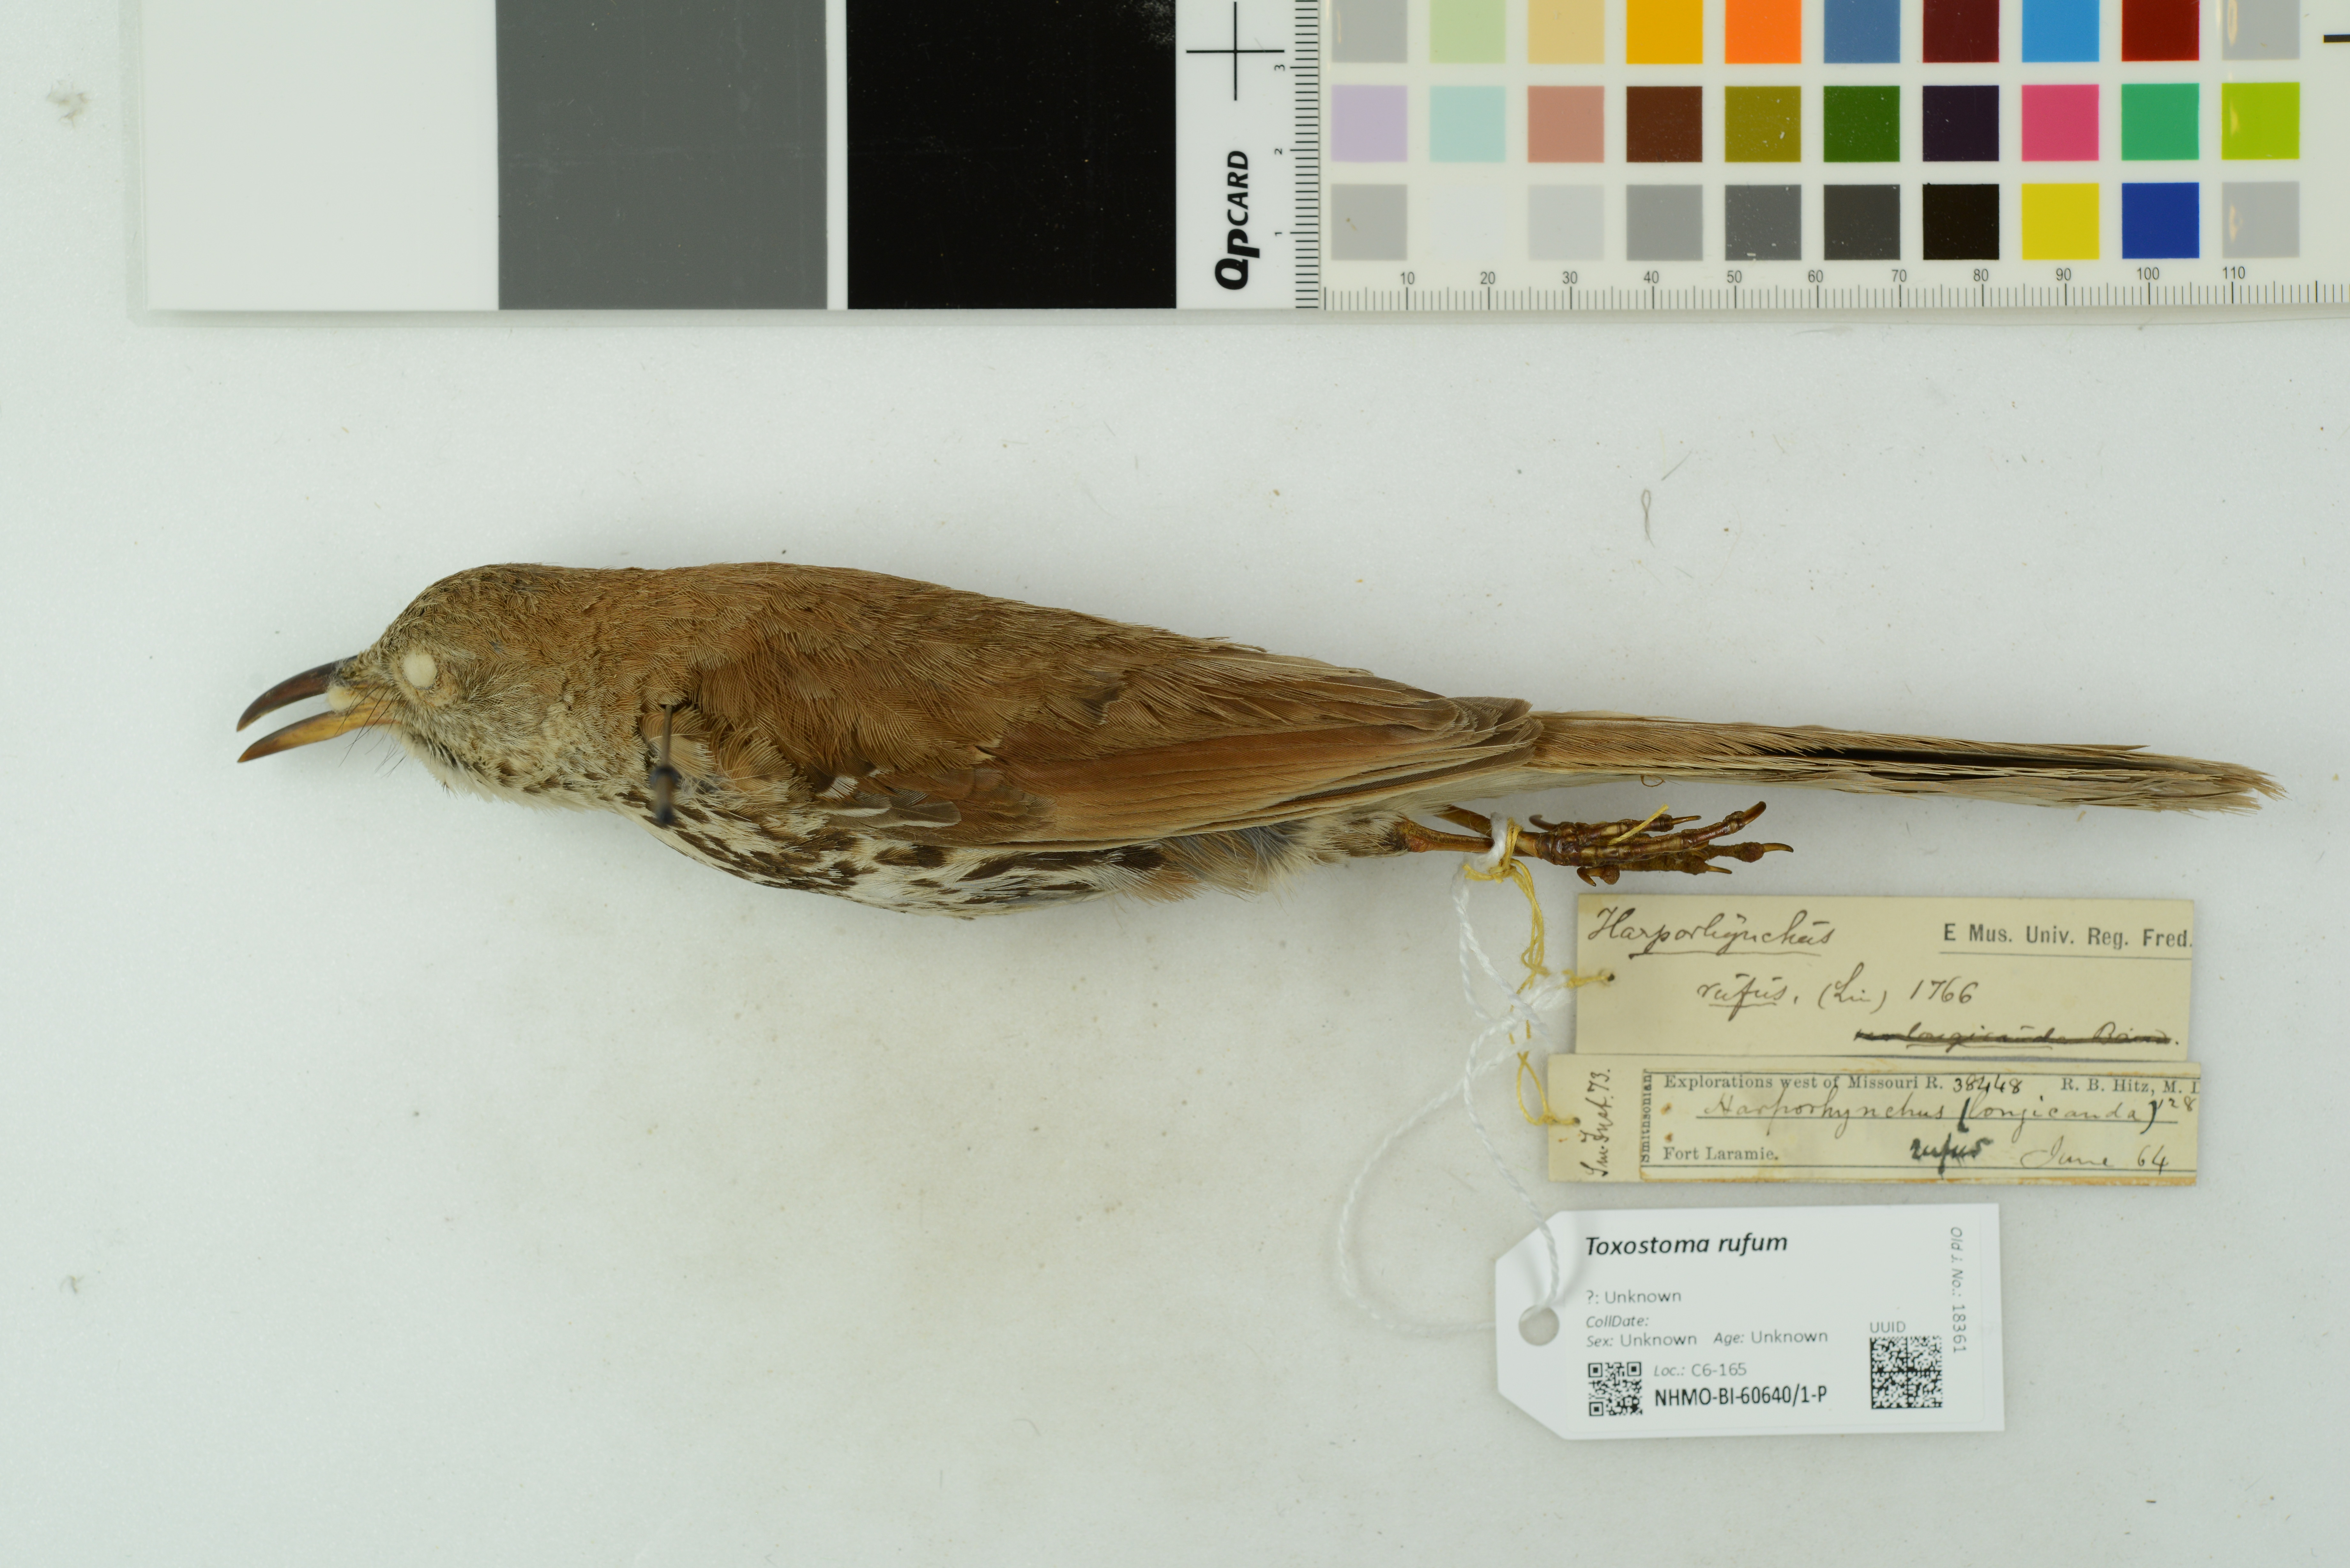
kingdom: Animalia
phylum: Chordata
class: Aves
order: Passeriformes
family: Mimidae
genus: Toxostoma
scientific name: Toxostoma rufum
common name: Brown thrasher
